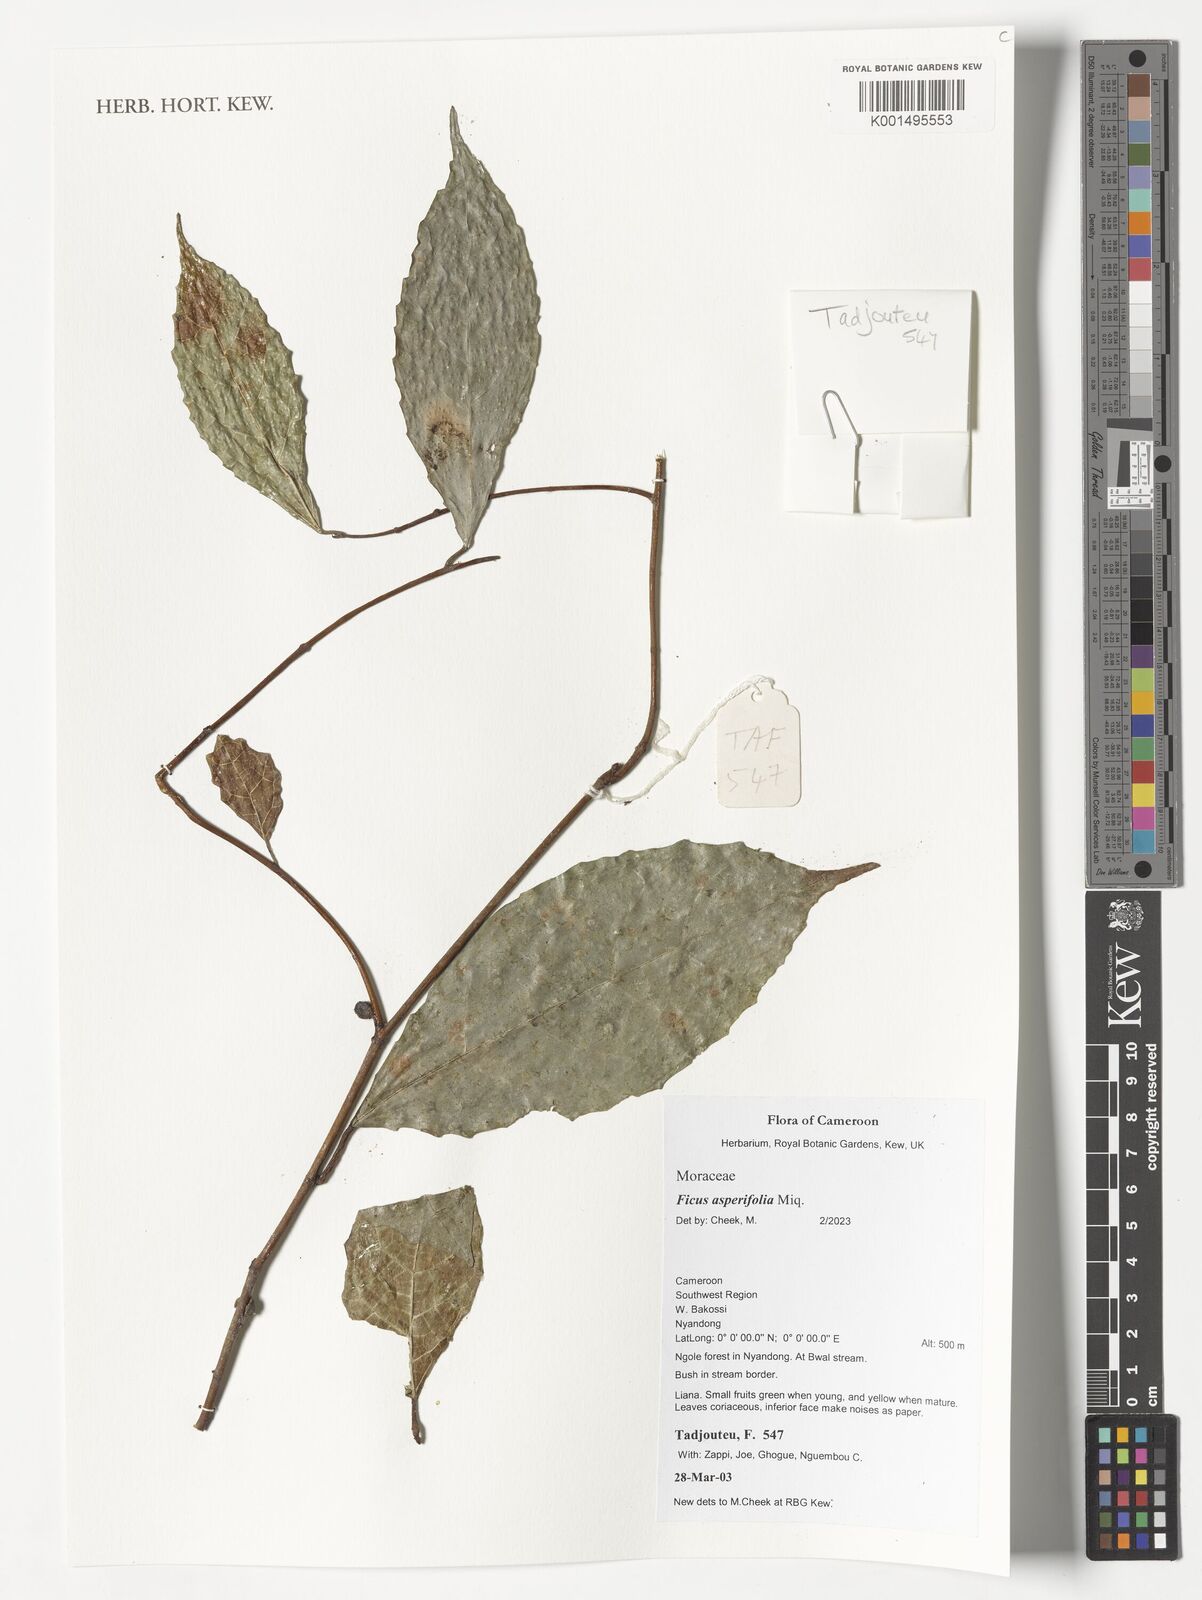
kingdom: Plantae
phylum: Tracheophyta
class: Magnoliopsida
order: Rosales
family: Moraceae
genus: Ficus
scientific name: Ficus asperifolia
